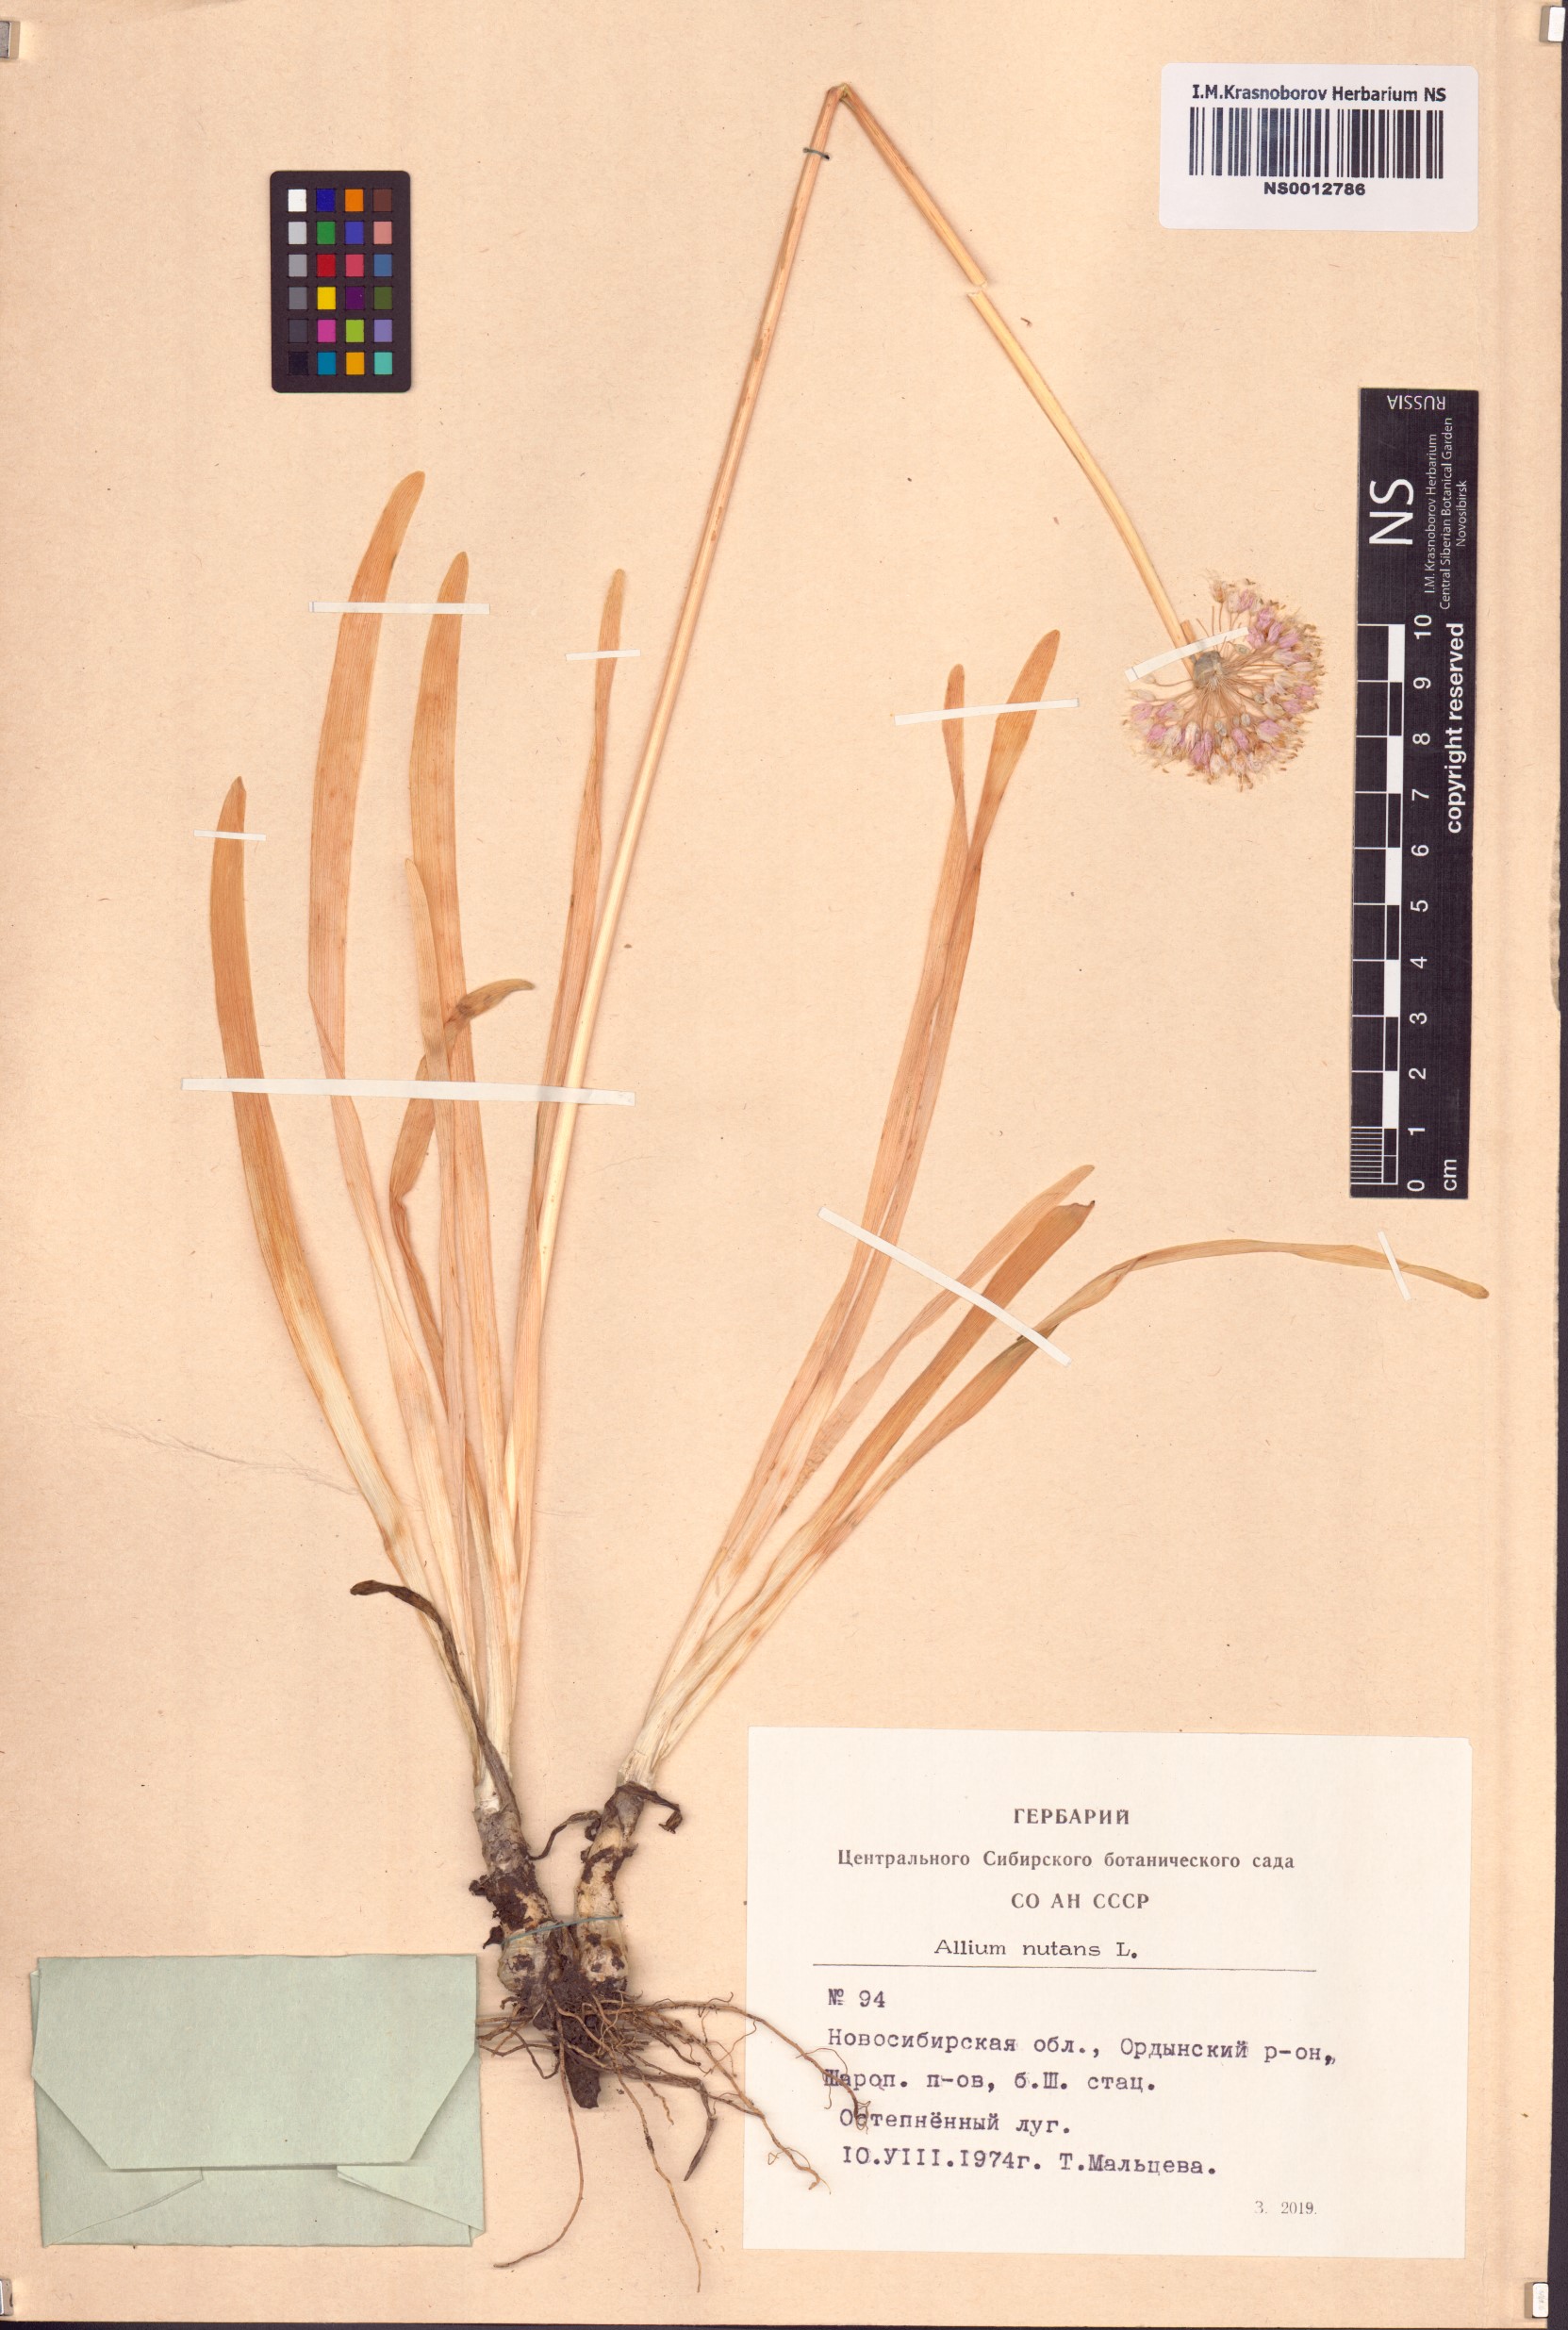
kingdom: Plantae
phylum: Tracheophyta
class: Liliopsida
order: Asparagales
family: Amaryllidaceae
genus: Allium
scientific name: Allium nutans
